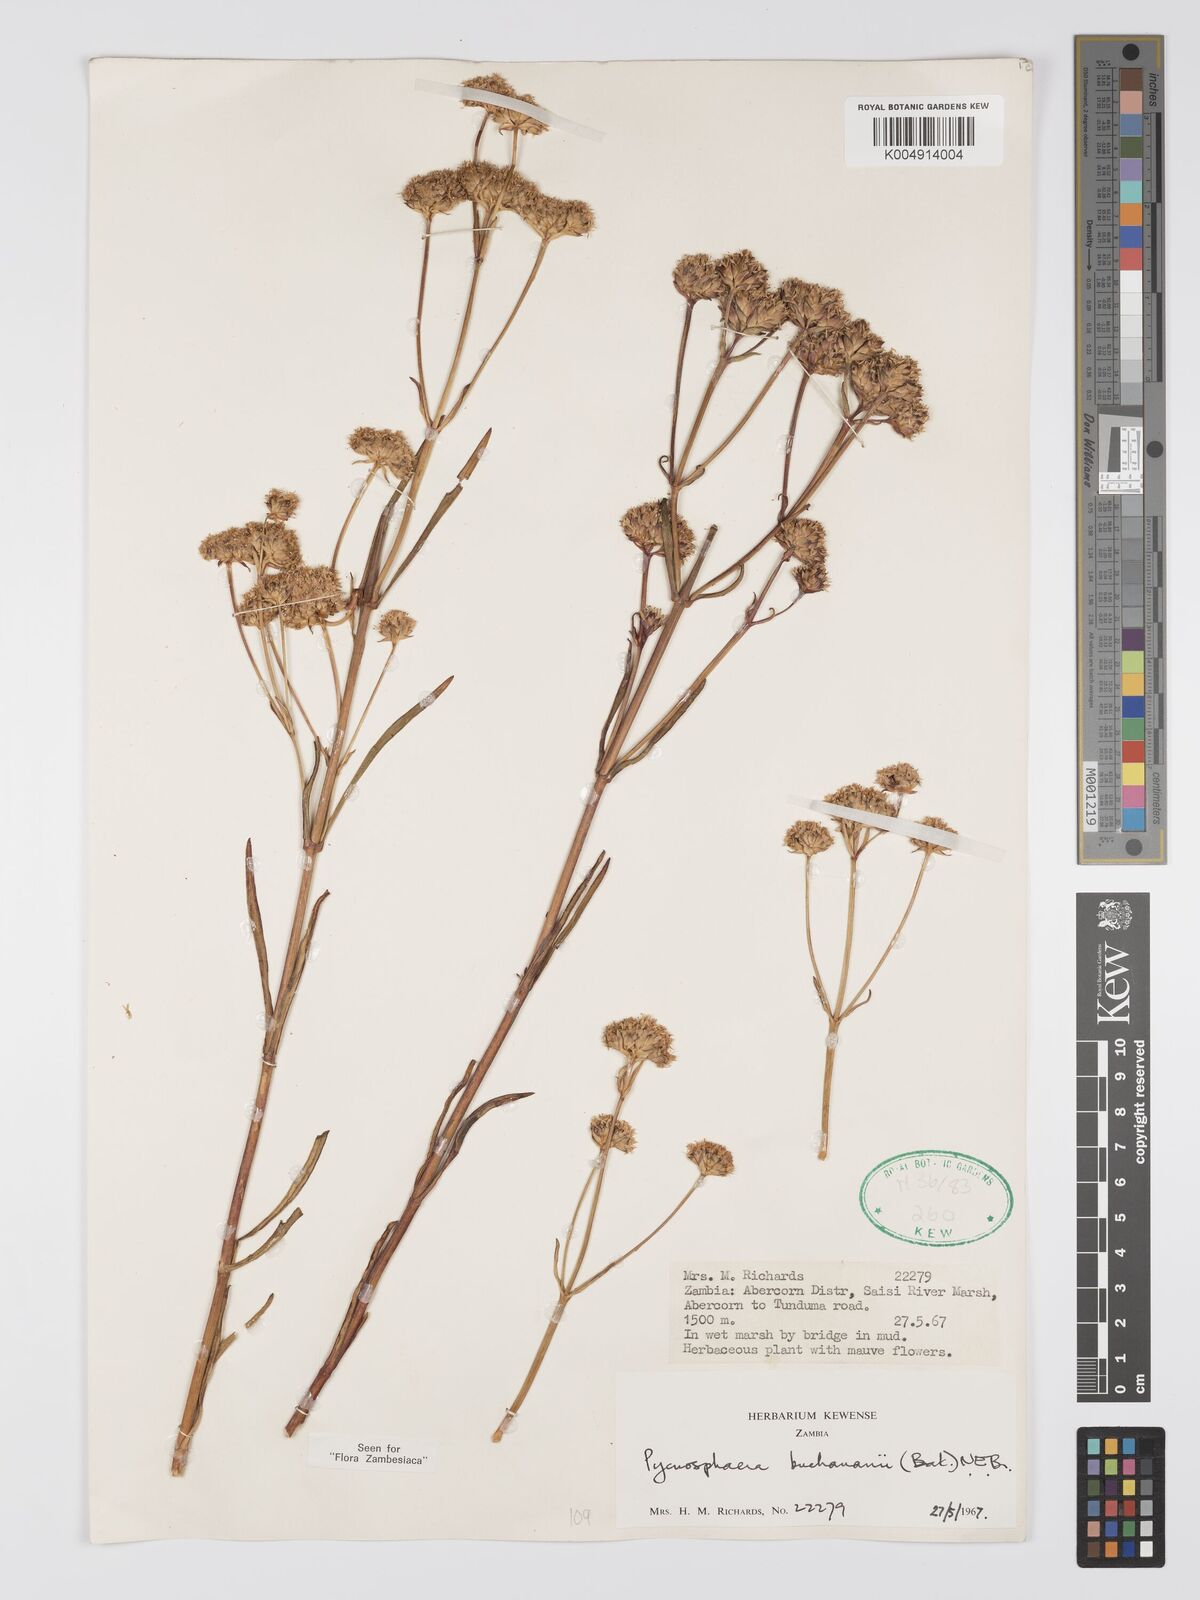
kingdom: Plantae
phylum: Tracheophyta
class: Magnoliopsida
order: Gentianales
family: Gentianaceae
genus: Pycnosphaera
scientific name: Pycnosphaera buchananii
